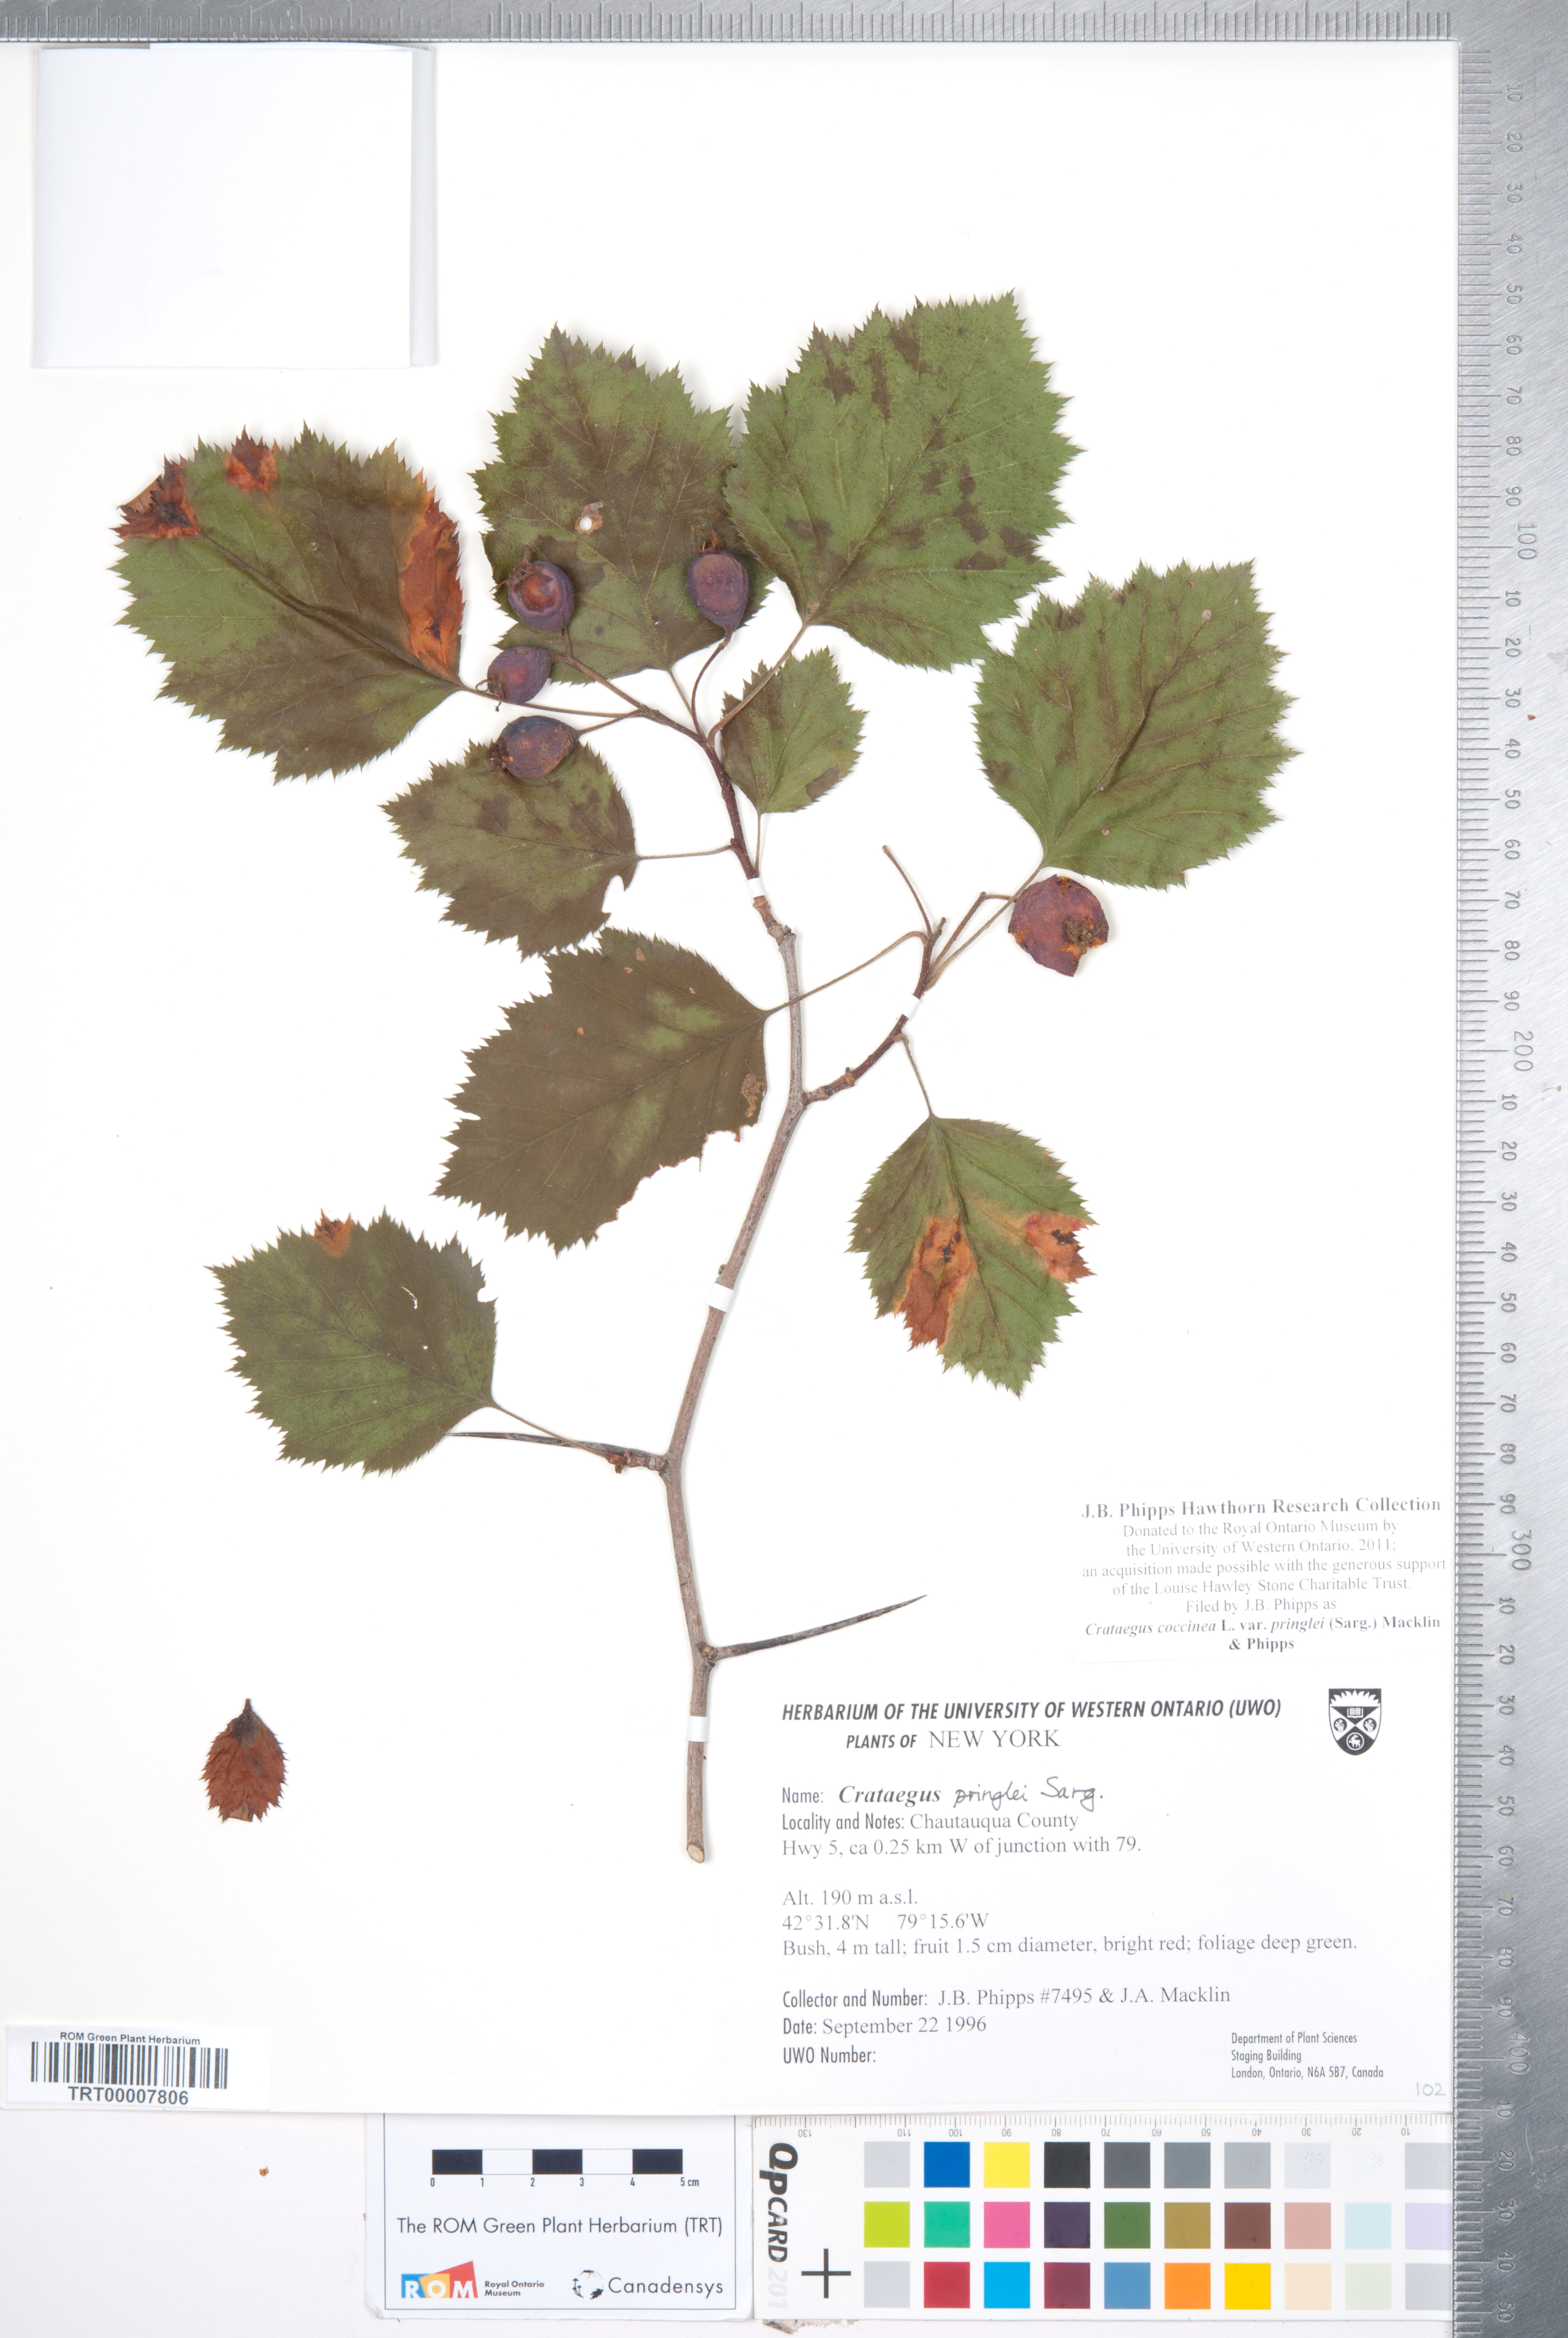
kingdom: Plantae
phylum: Tracheophyta
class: Magnoliopsida
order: Rosales
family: Rosaceae
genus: Crataegus
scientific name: Crataegus coccinea
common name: Scarlet hawthorn
